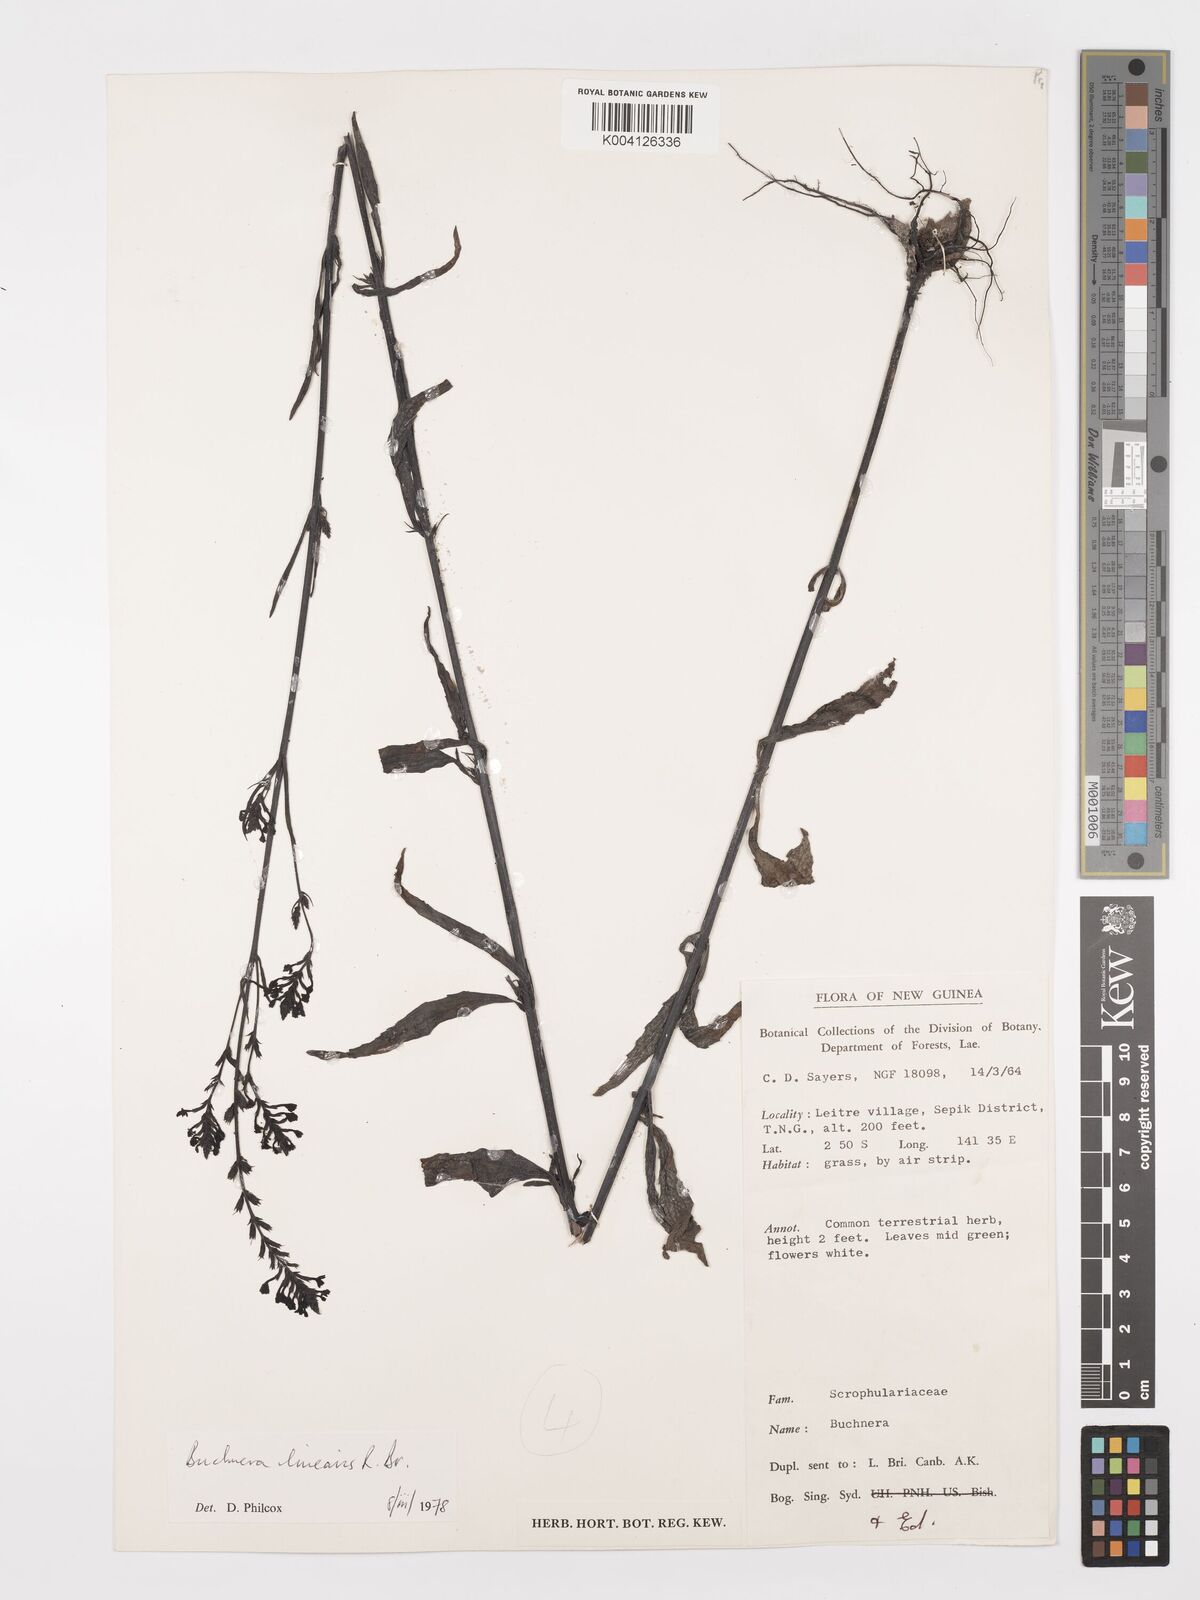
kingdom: Plantae
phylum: Tracheophyta
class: Magnoliopsida
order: Lamiales
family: Orobanchaceae
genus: Buchnera
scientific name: Buchnera linearis
